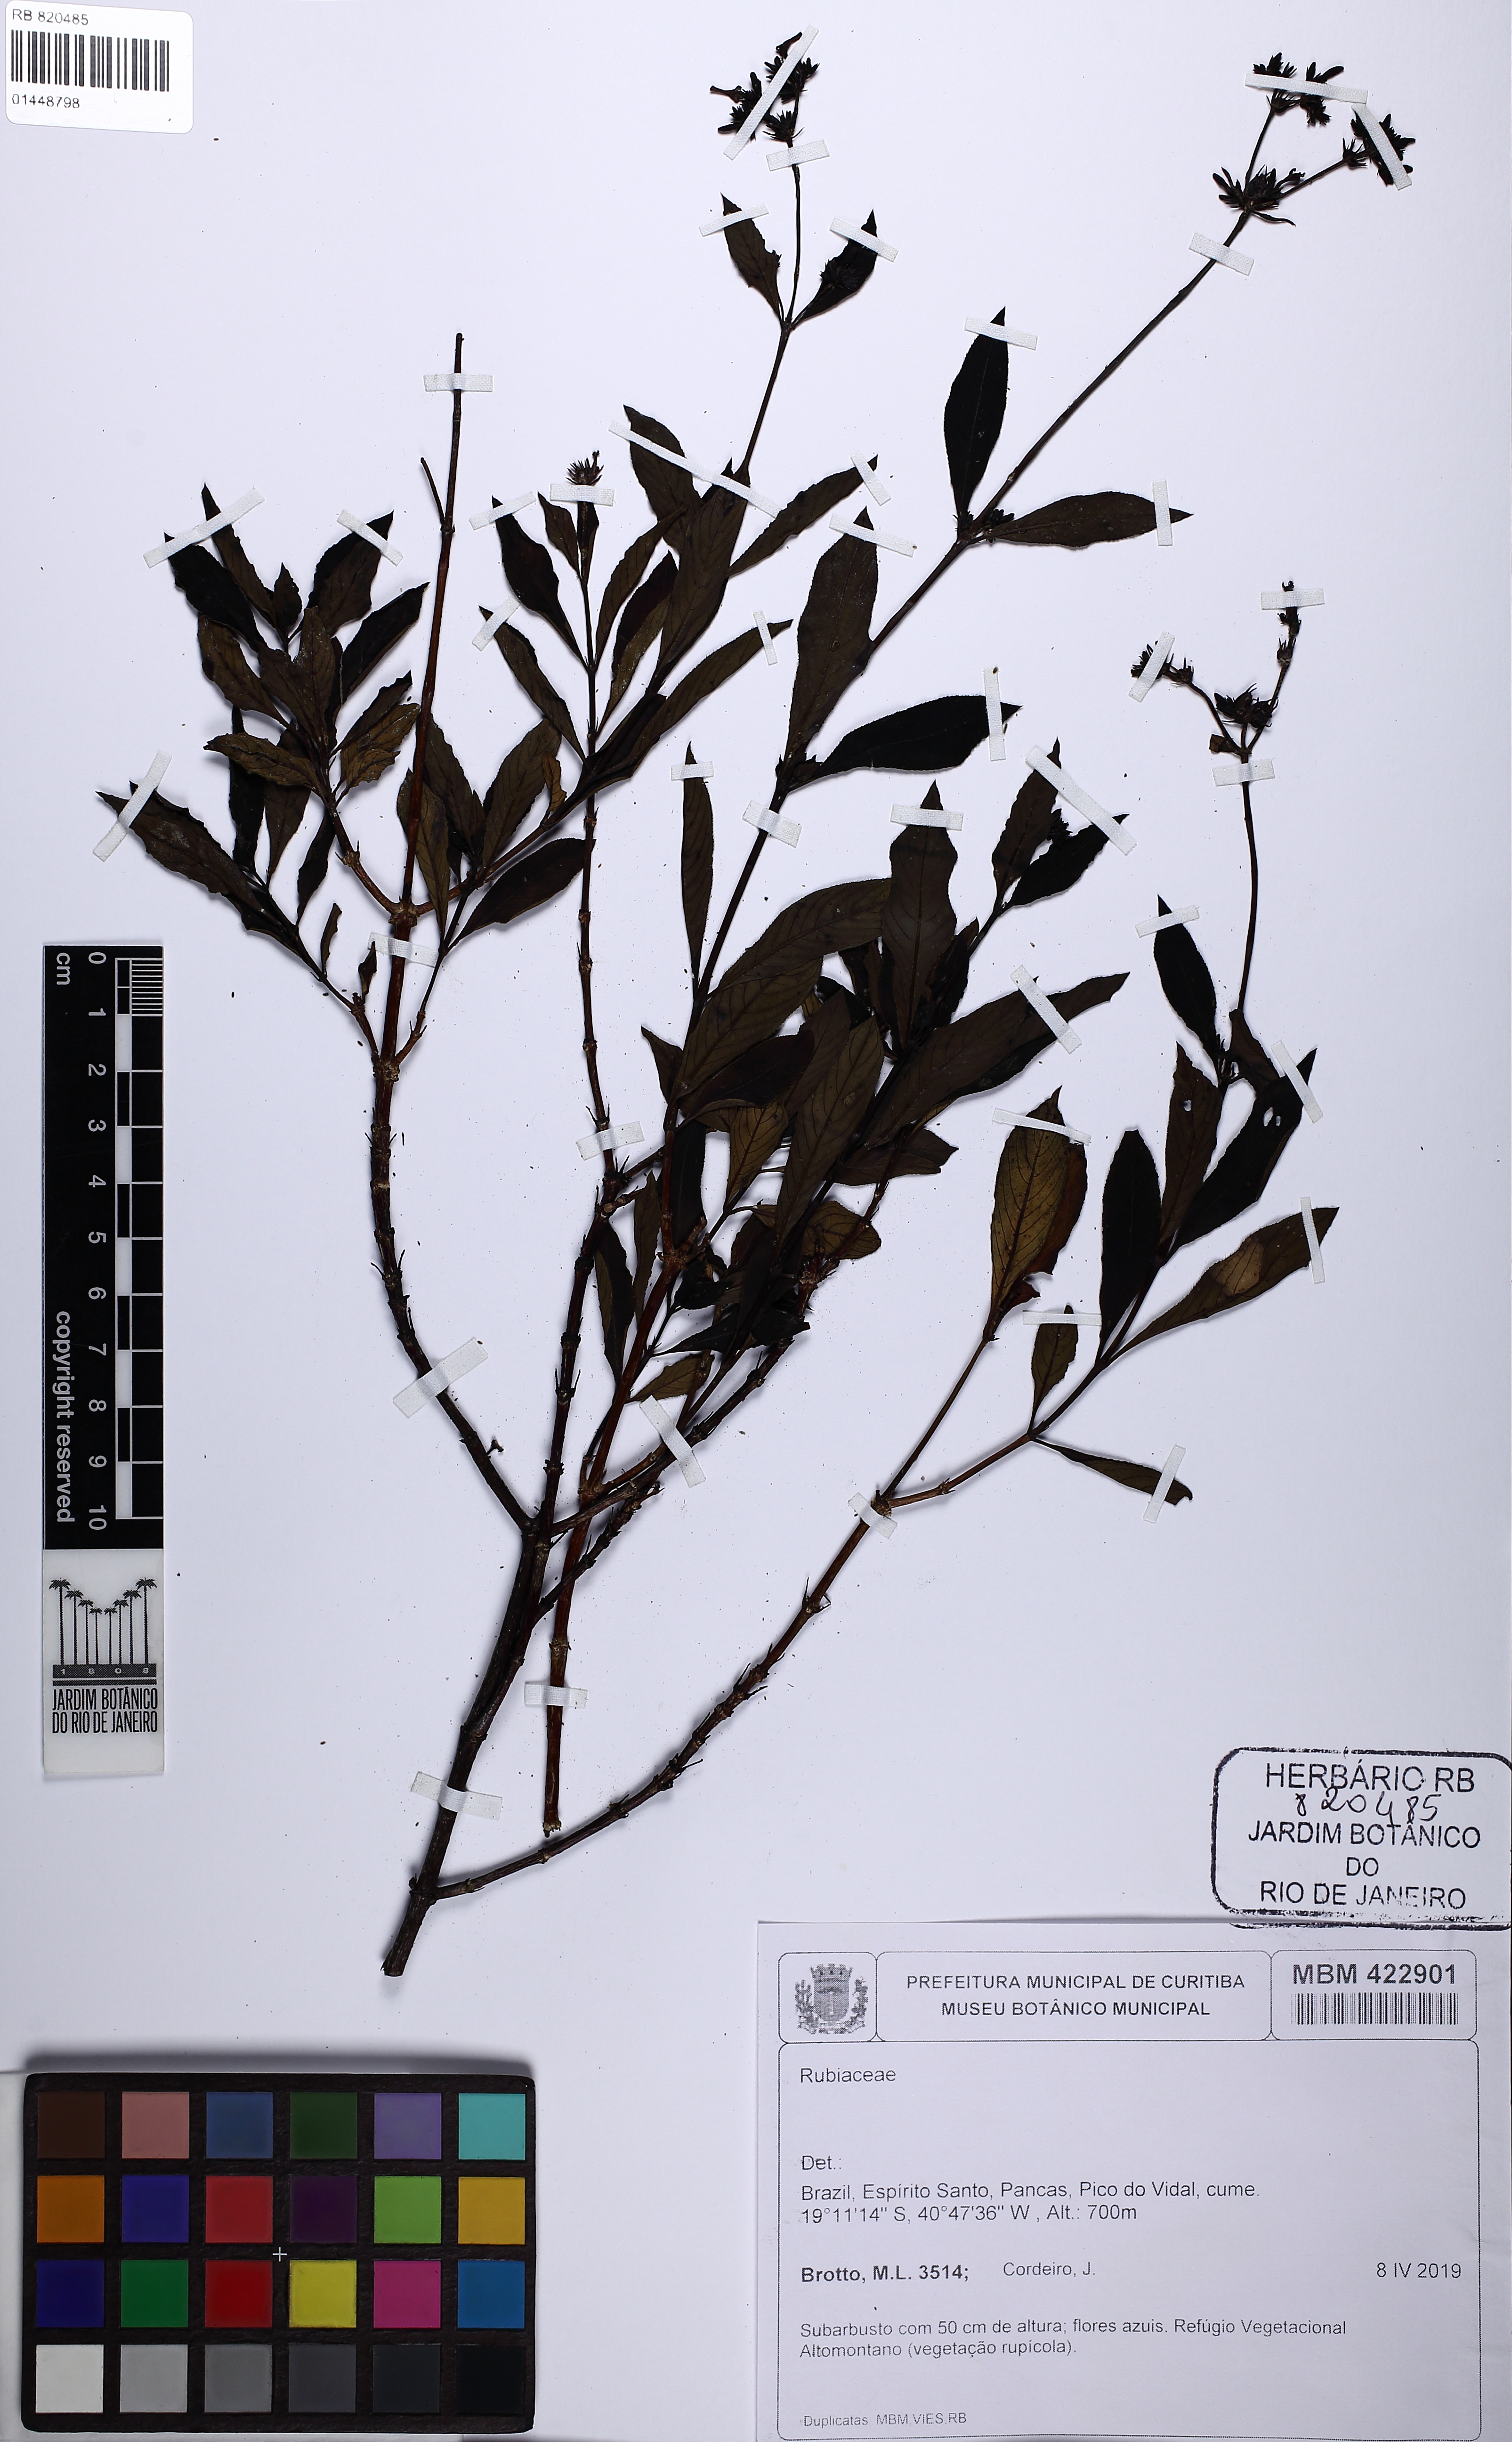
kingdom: Plantae
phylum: Tracheophyta
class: Magnoliopsida
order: Gentianales
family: Rubiaceae
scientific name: Rubiaceae
